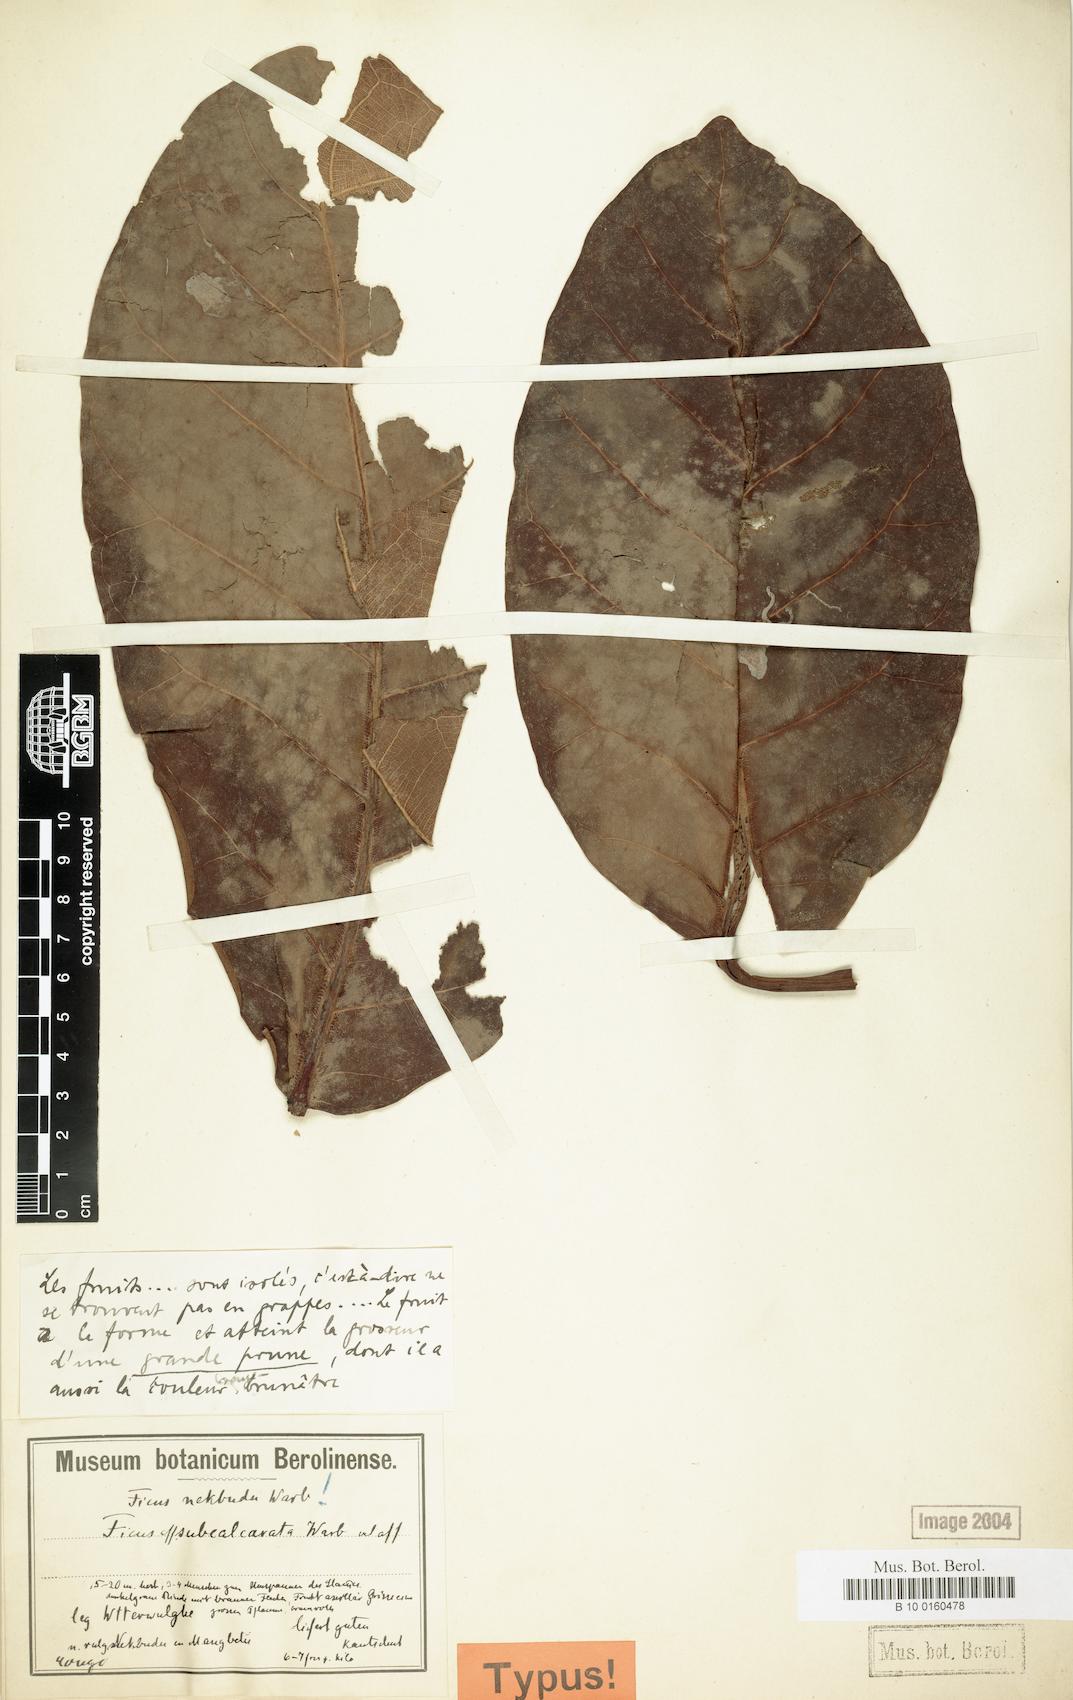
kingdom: Plantae
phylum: Tracheophyta
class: Magnoliopsida
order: Rosales
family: Moraceae
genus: Ficus
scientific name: Ficus lutea
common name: Giant-leaved fig
